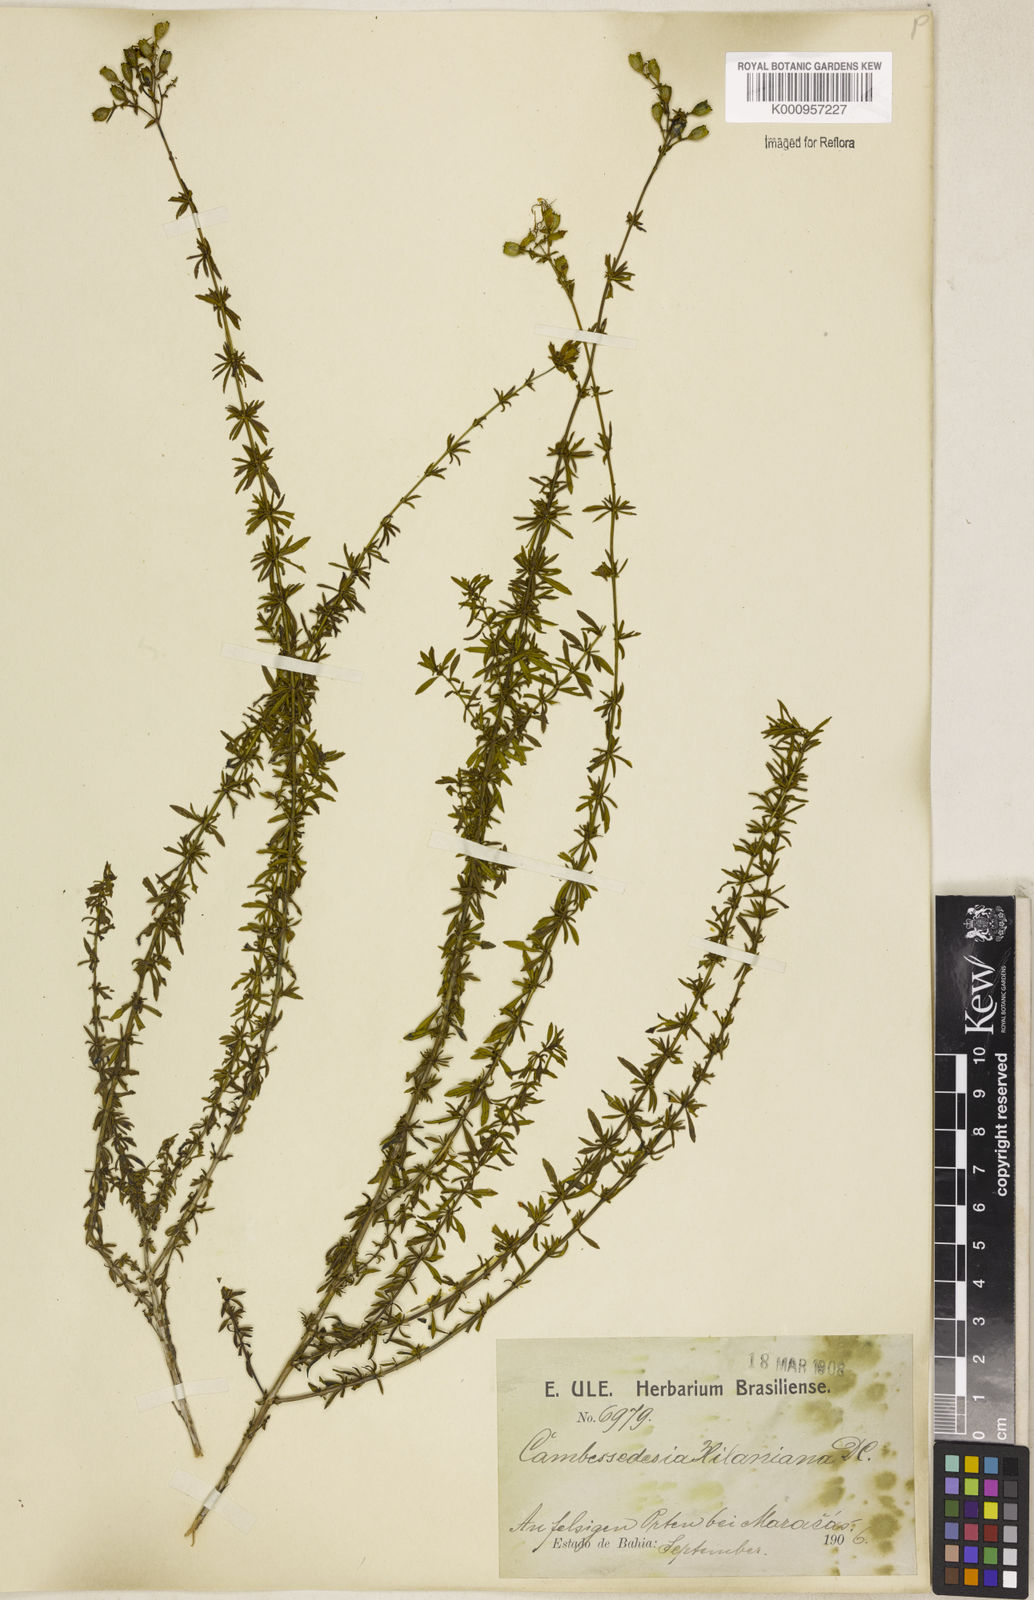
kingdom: Plantae
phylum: Tracheophyta
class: Magnoliopsida
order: Myrtales
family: Melastomataceae
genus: Cambessedesia
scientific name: Cambessedesia hilariana
